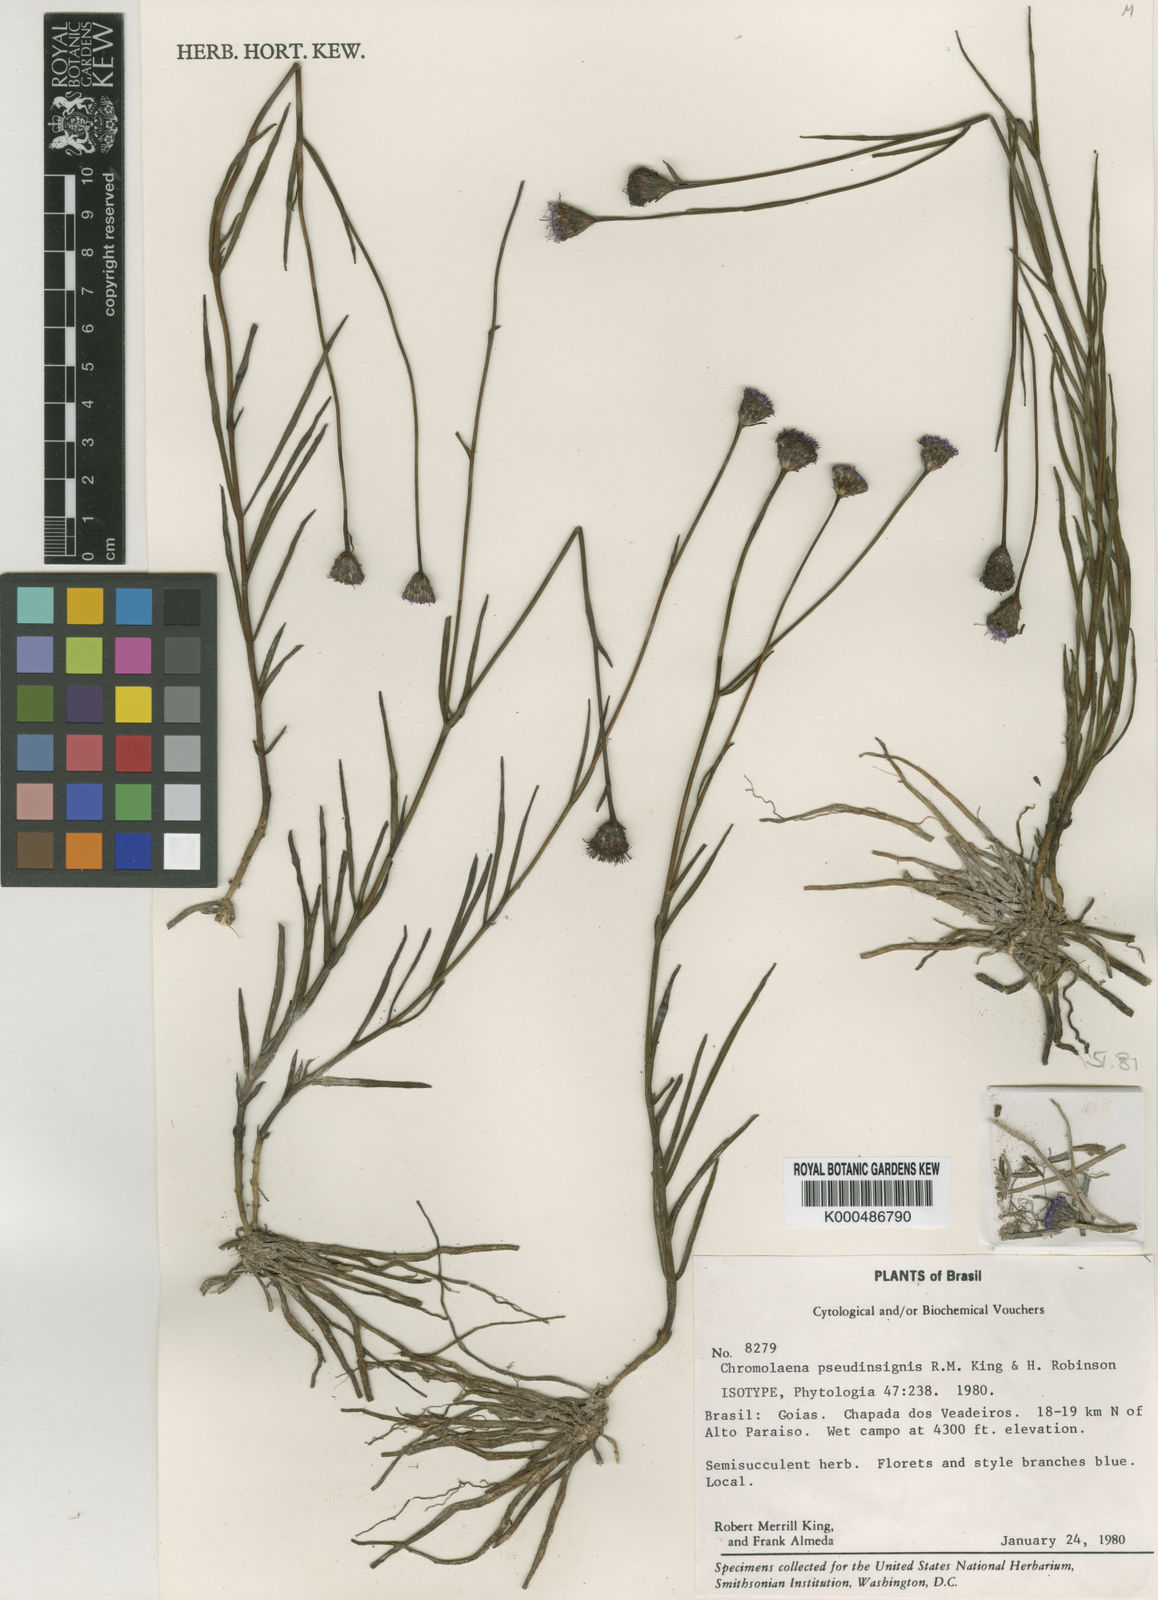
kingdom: Plantae
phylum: Tracheophyta
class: Magnoliopsida
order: Asterales
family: Asteraceae
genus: Chromolaena
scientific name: Chromolaena pseudinsignis
